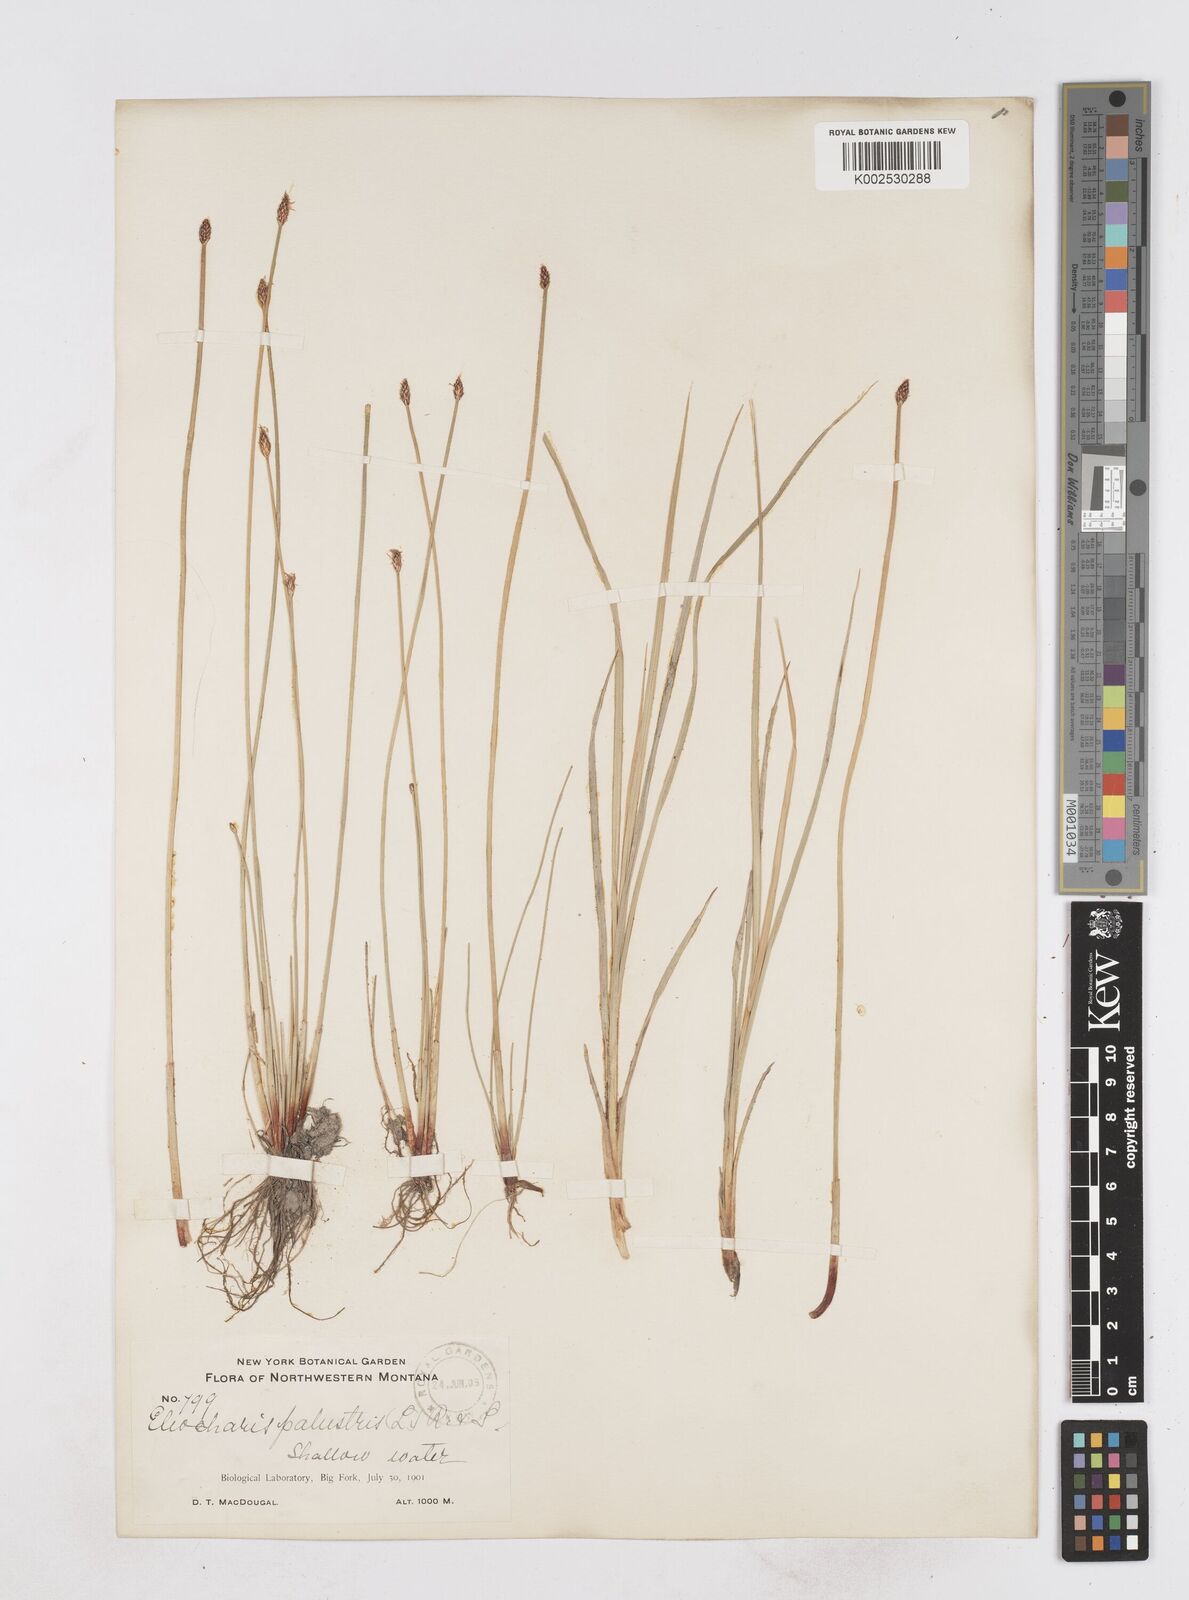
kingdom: Plantae
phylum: Tracheophyta
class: Liliopsida
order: Poales
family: Cyperaceae
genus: Eleocharis
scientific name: Eleocharis montana
